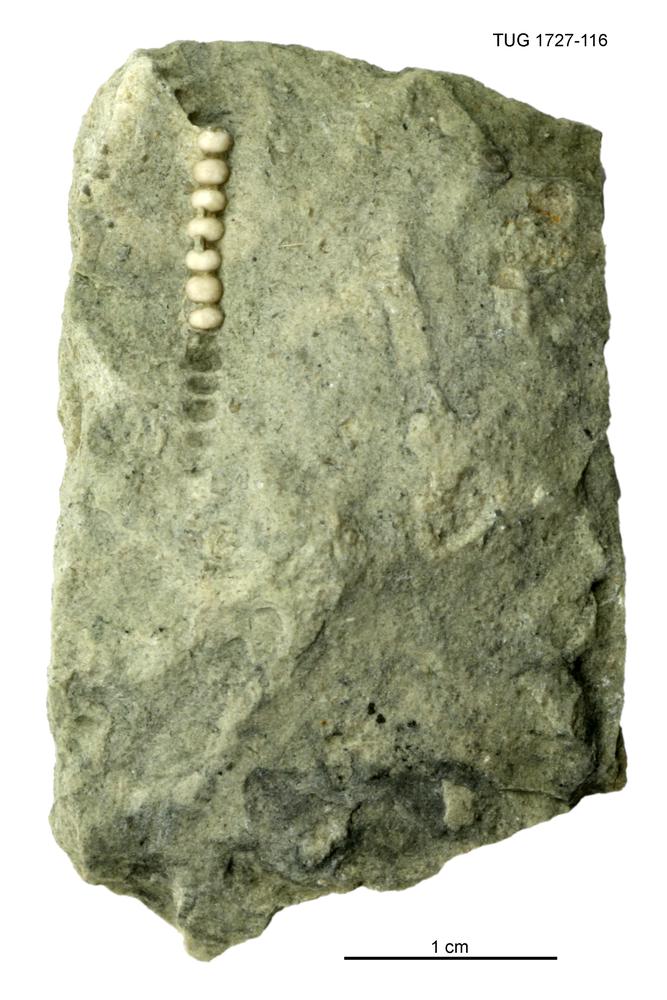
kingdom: Animalia
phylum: Echinodermata
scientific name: Echinodermata
